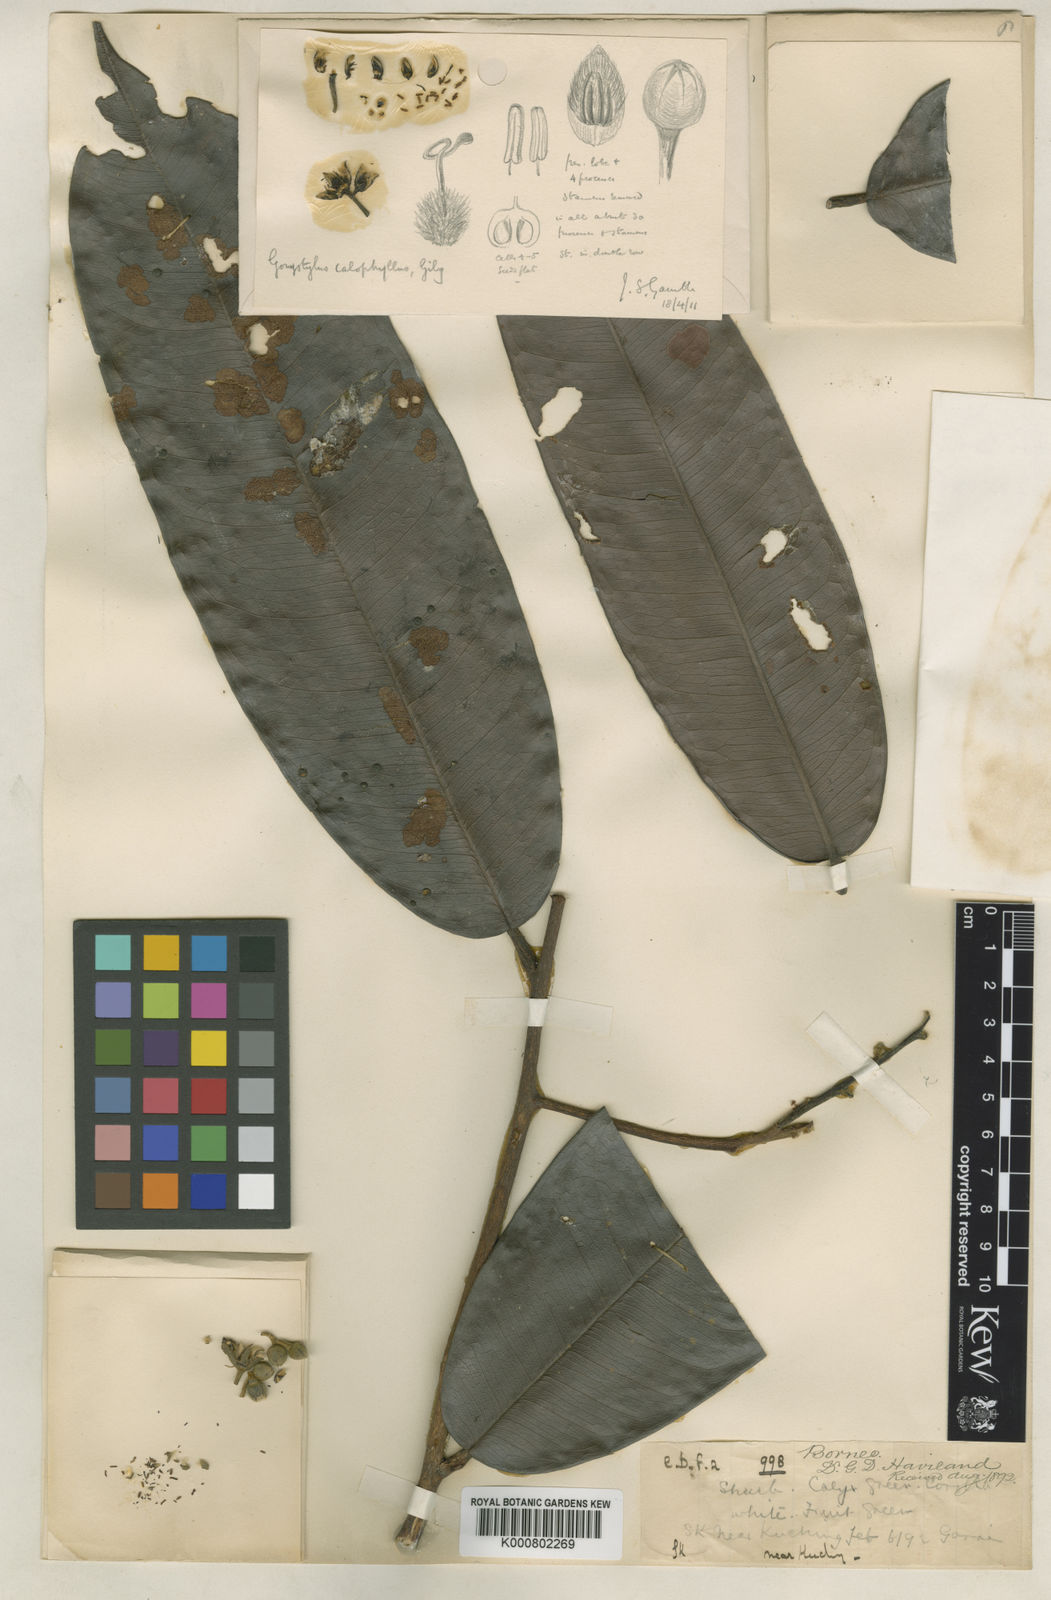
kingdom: Plantae
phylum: Tracheophyta
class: Magnoliopsida
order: Malvales
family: Thymelaeaceae
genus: Gonystylus
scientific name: Gonystylus calophyllus
